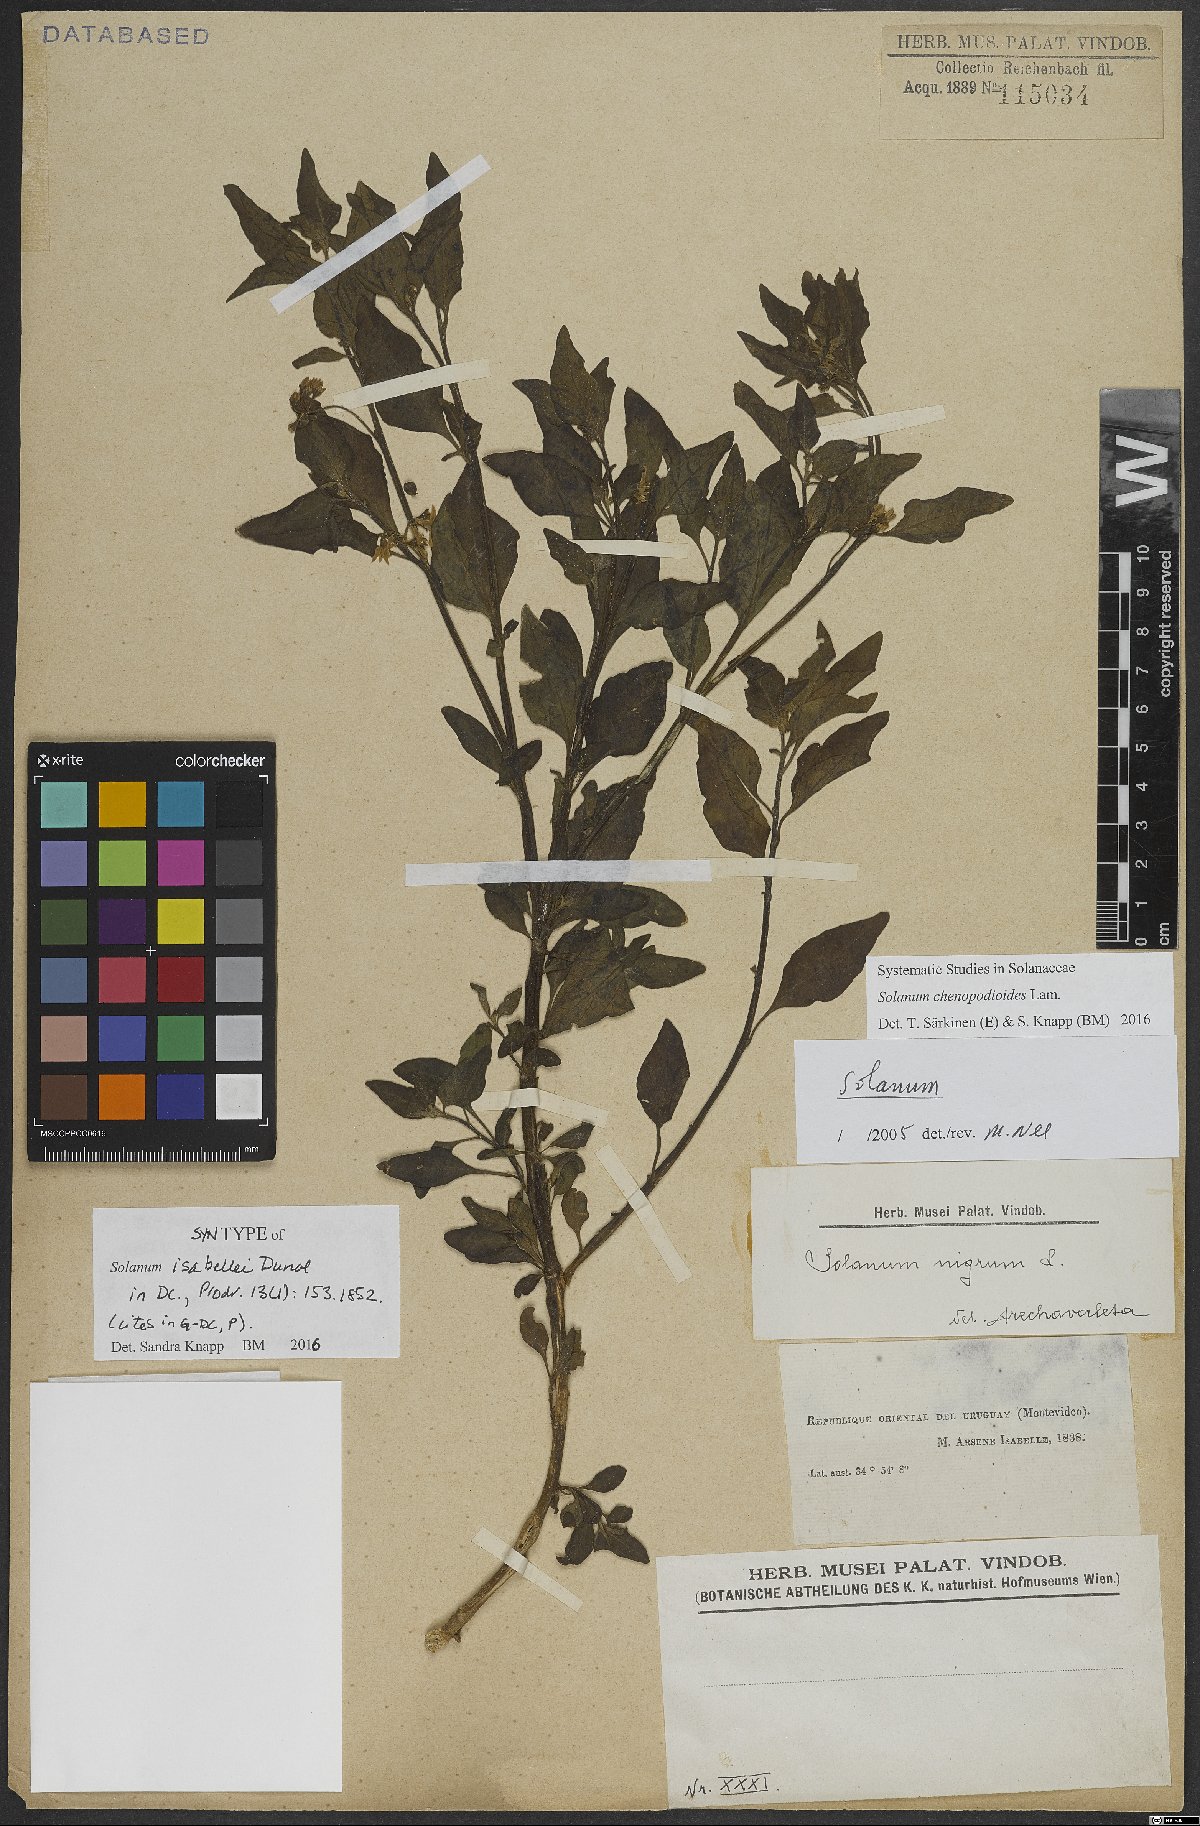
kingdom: Plantae
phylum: Tracheophyta
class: Magnoliopsida
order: Solanales
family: Solanaceae
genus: Solanum
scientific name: Solanum chenopodioides
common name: Tall nightshade
